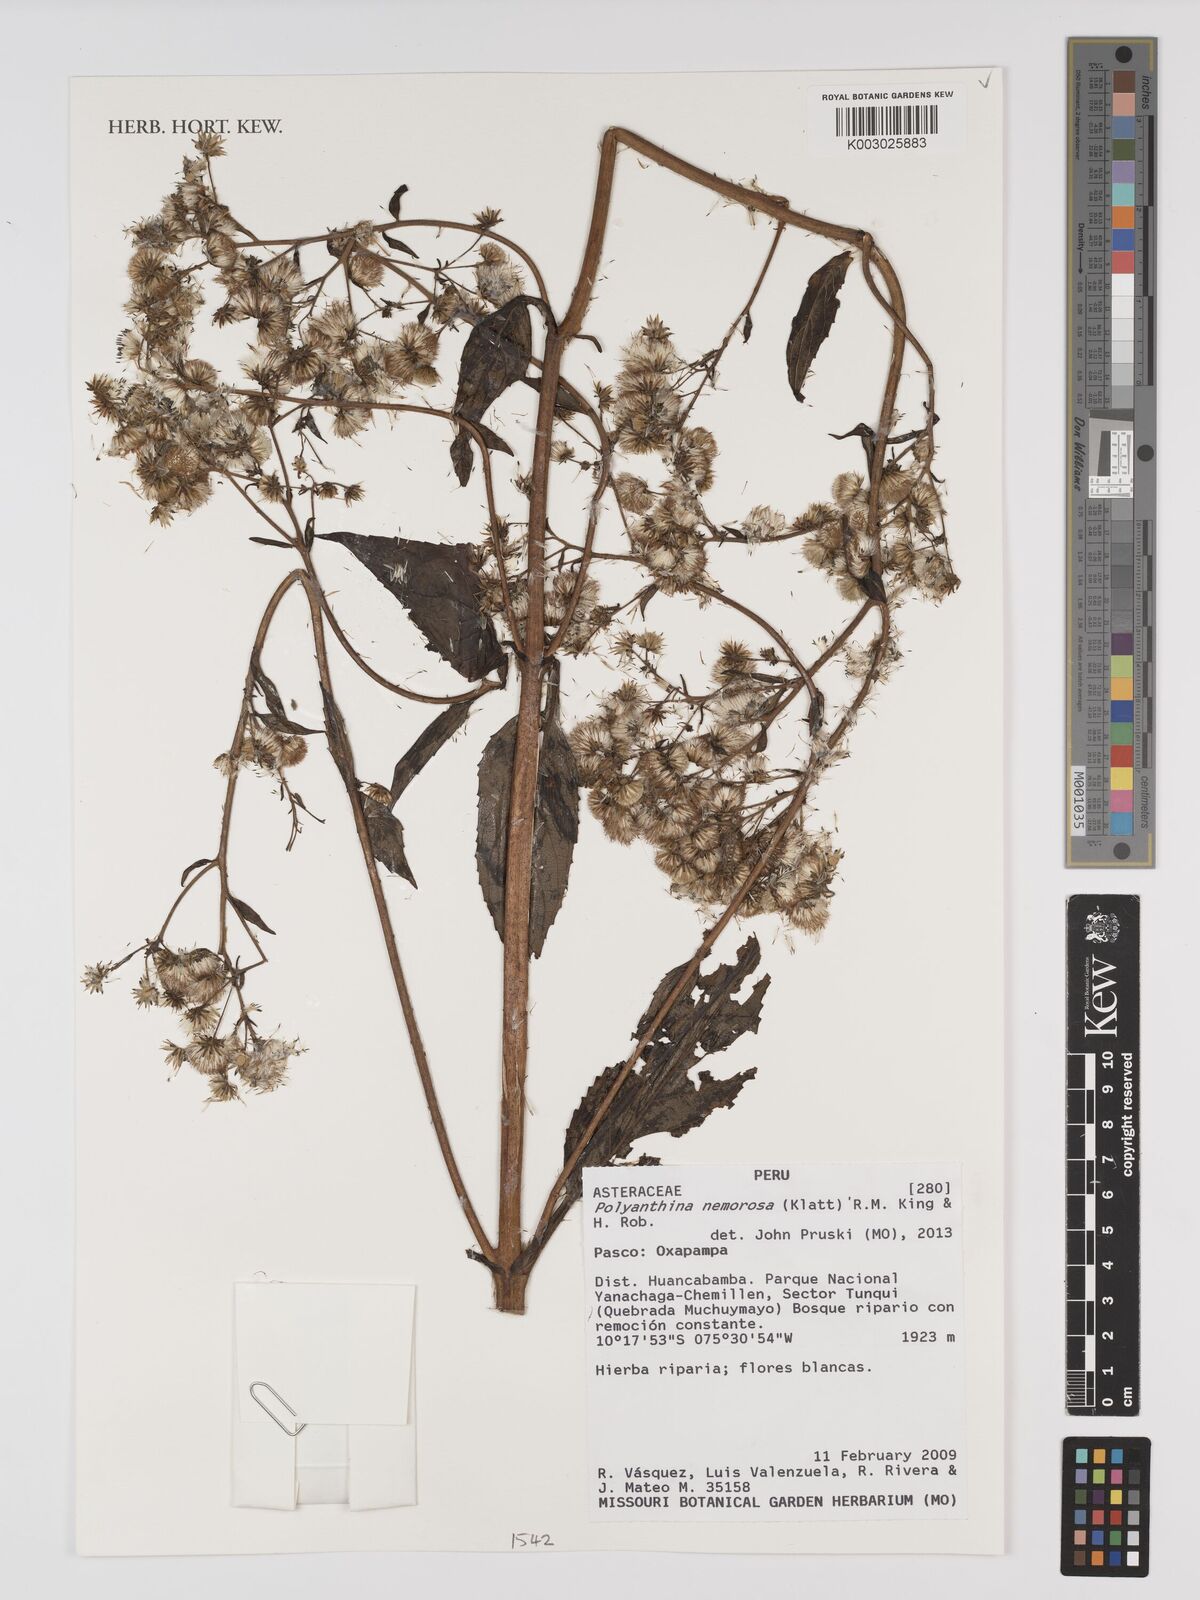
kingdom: Plantae
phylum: Tracheophyta
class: Magnoliopsida
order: Asterales
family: Asteraceae
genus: Polyanthina
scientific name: Polyanthina nemorosa
